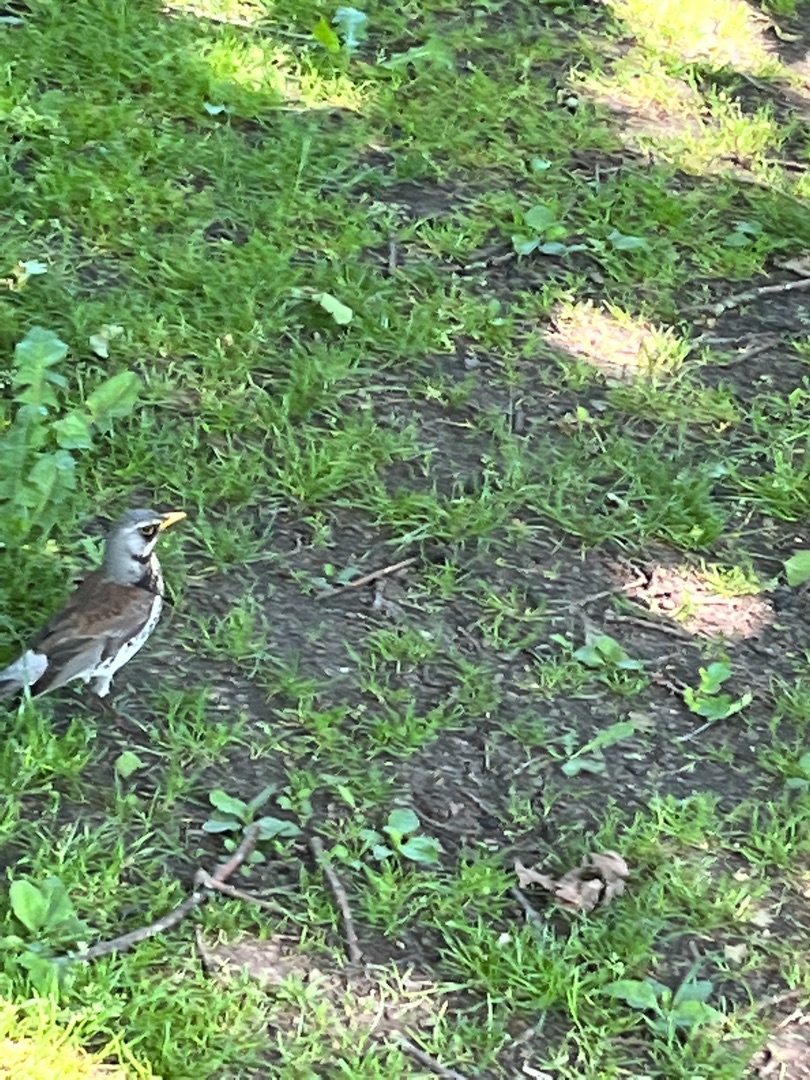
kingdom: Animalia
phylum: Chordata
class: Aves
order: Passeriformes
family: Turdidae
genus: Turdus
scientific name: Turdus pilaris
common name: Sjagger
